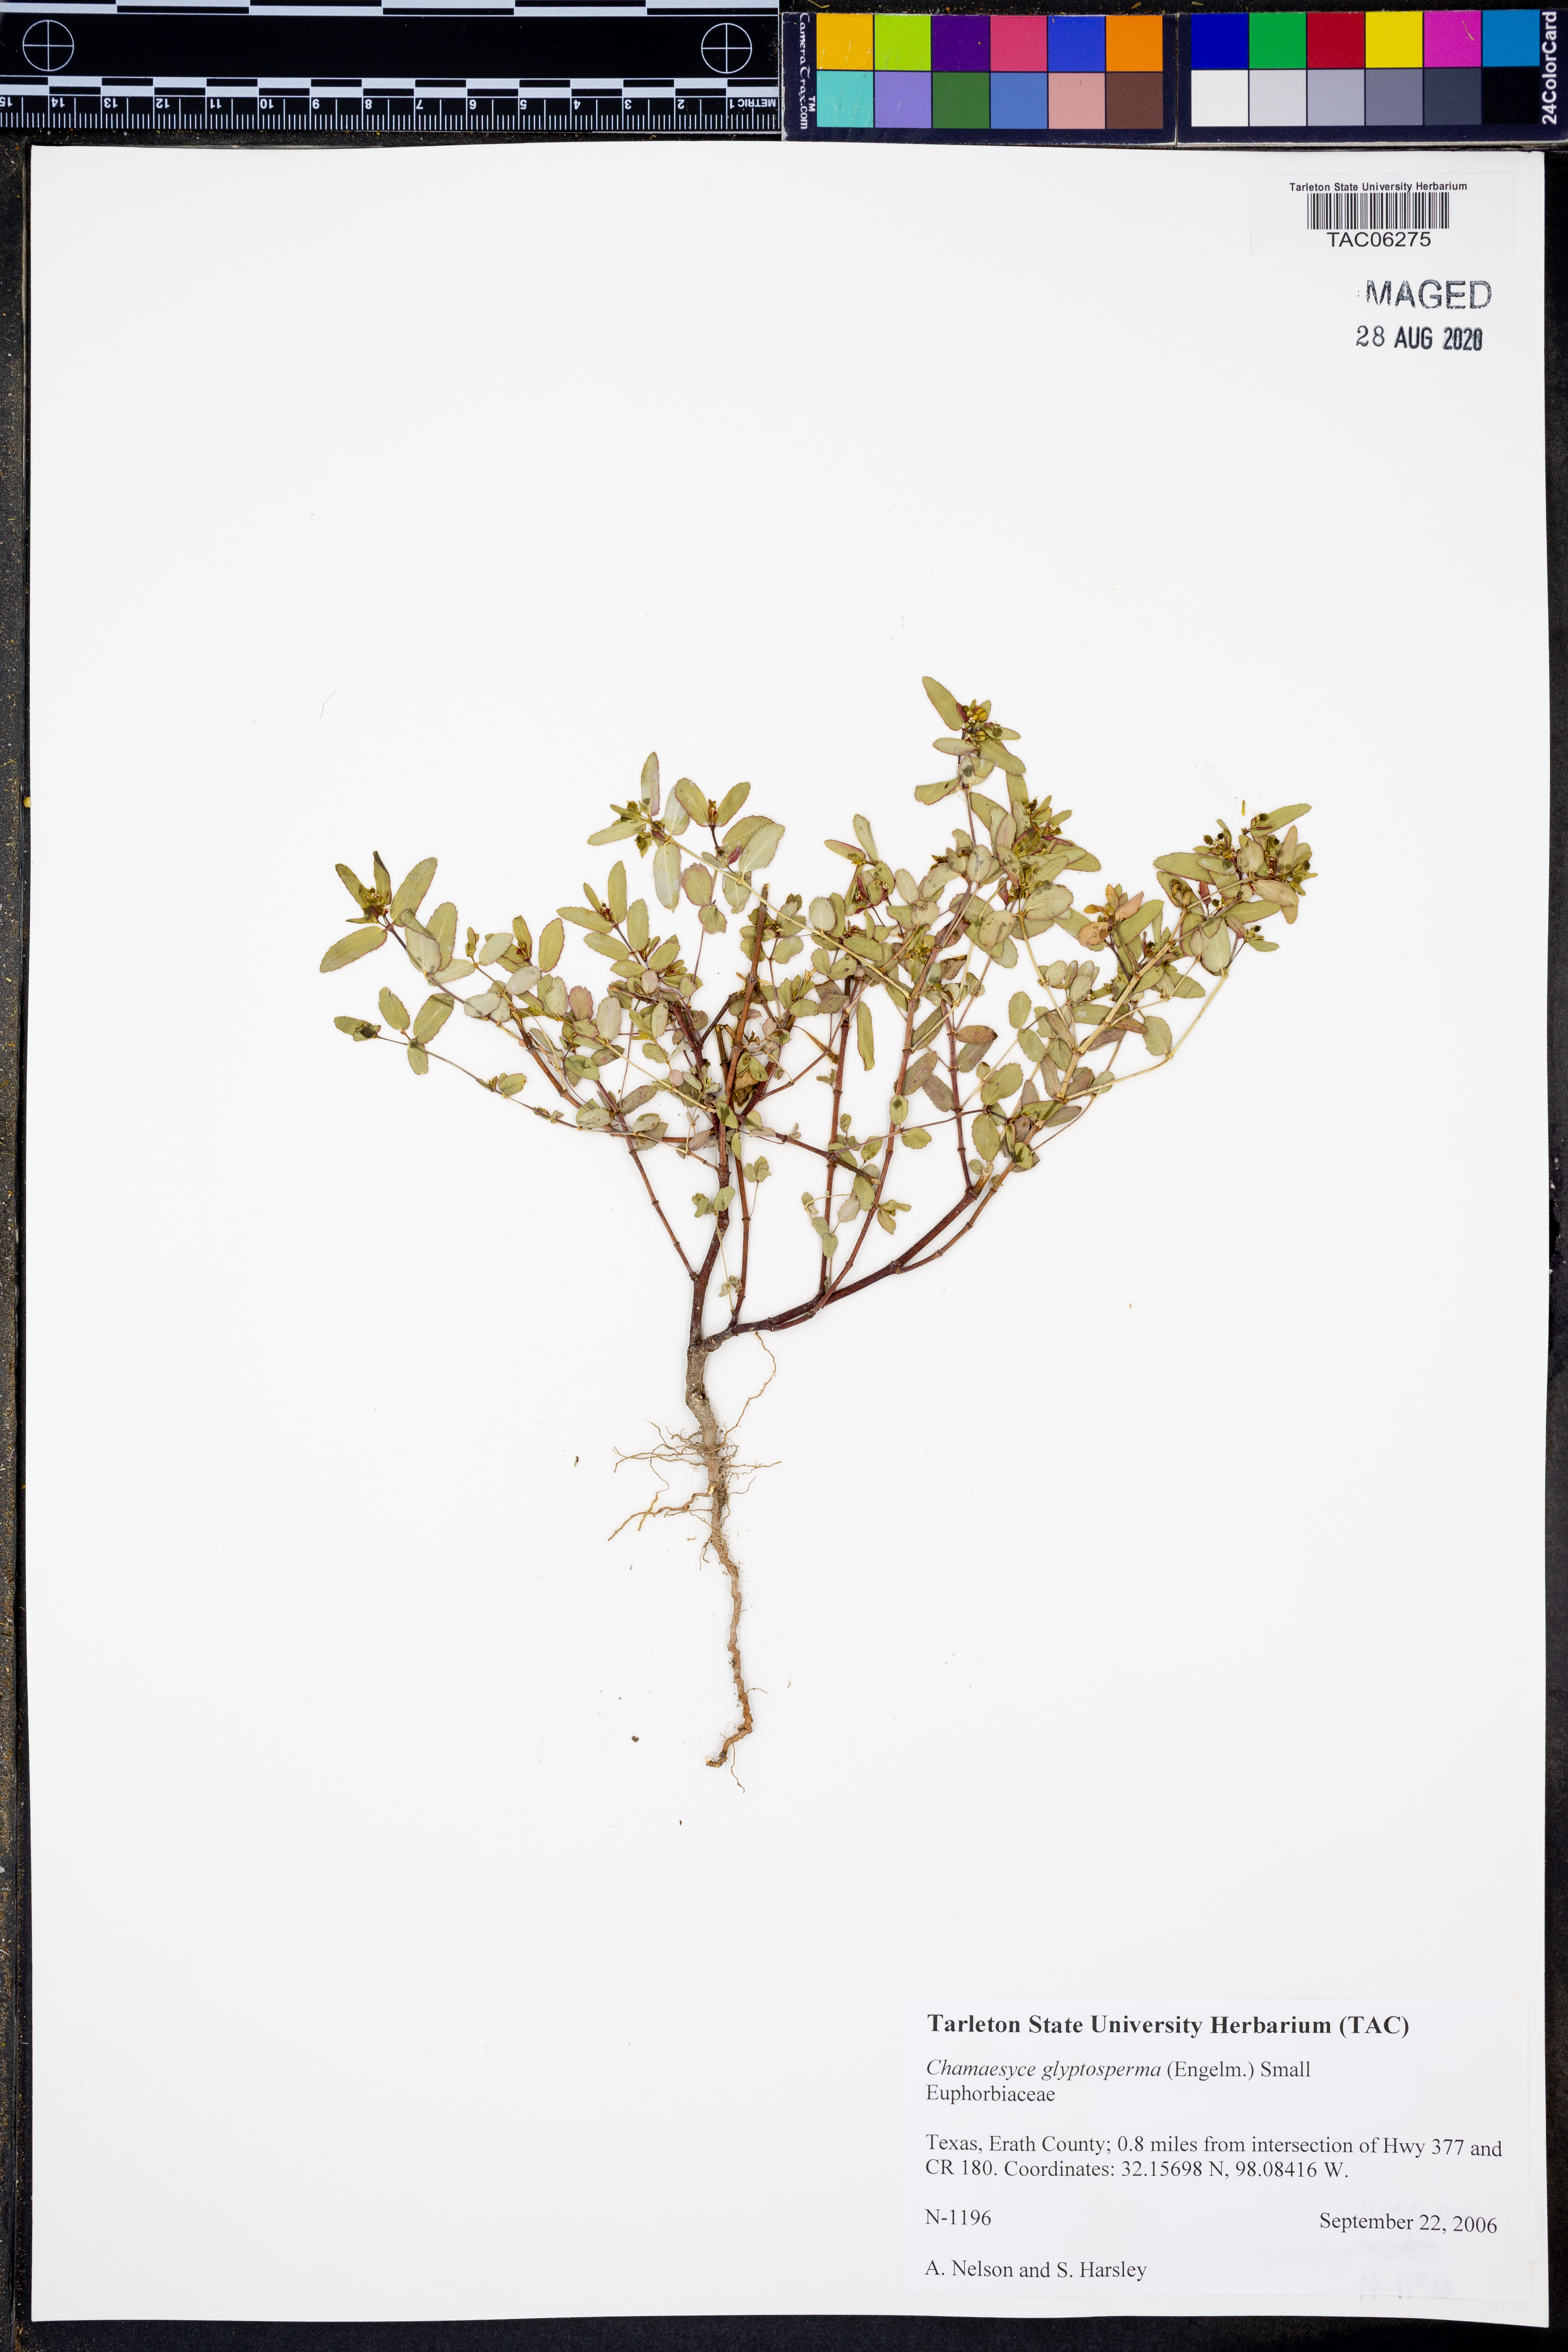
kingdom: Plantae
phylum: Tracheophyta
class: Magnoliopsida
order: Malpighiales
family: Euphorbiaceae
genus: Euphorbia
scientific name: Euphorbia glyptosperma
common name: Corrugate-seeded spurge
